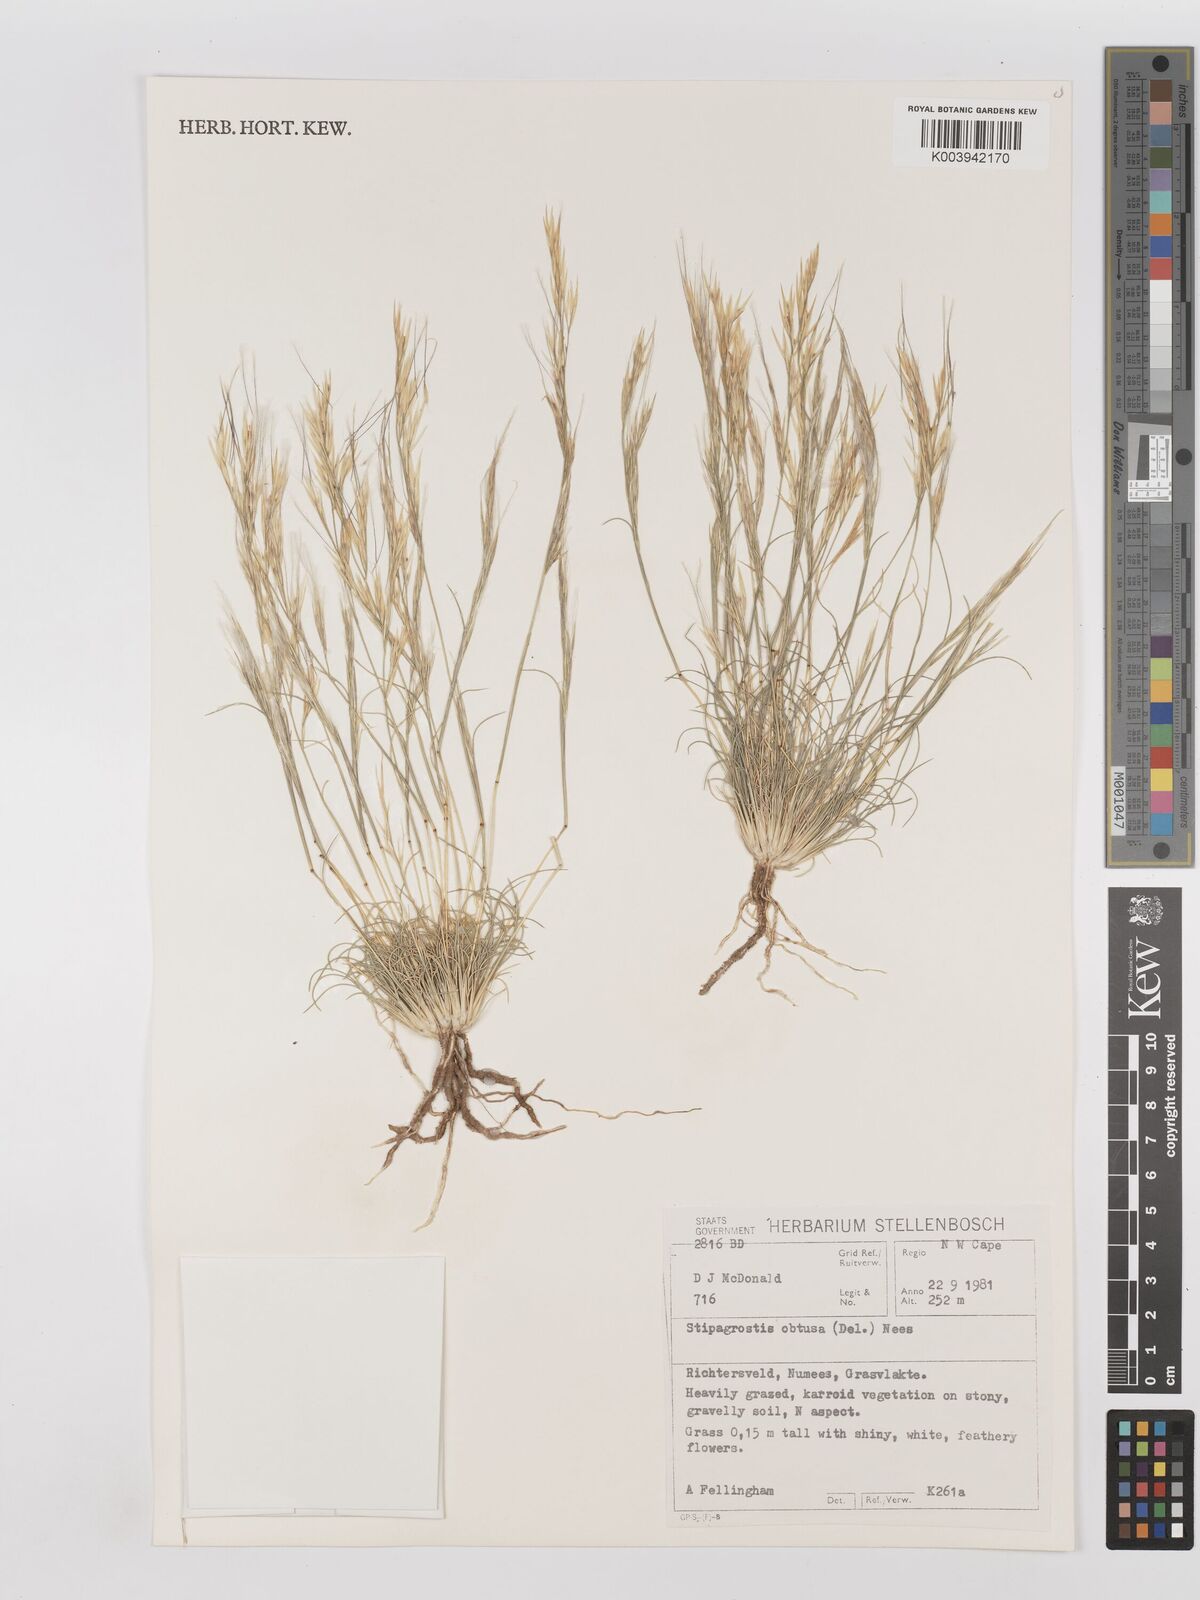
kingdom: Plantae
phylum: Tracheophyta
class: Liliopsida
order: Poales
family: Poaceae
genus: Stipagrostis
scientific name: Stipagrostis obtusa
